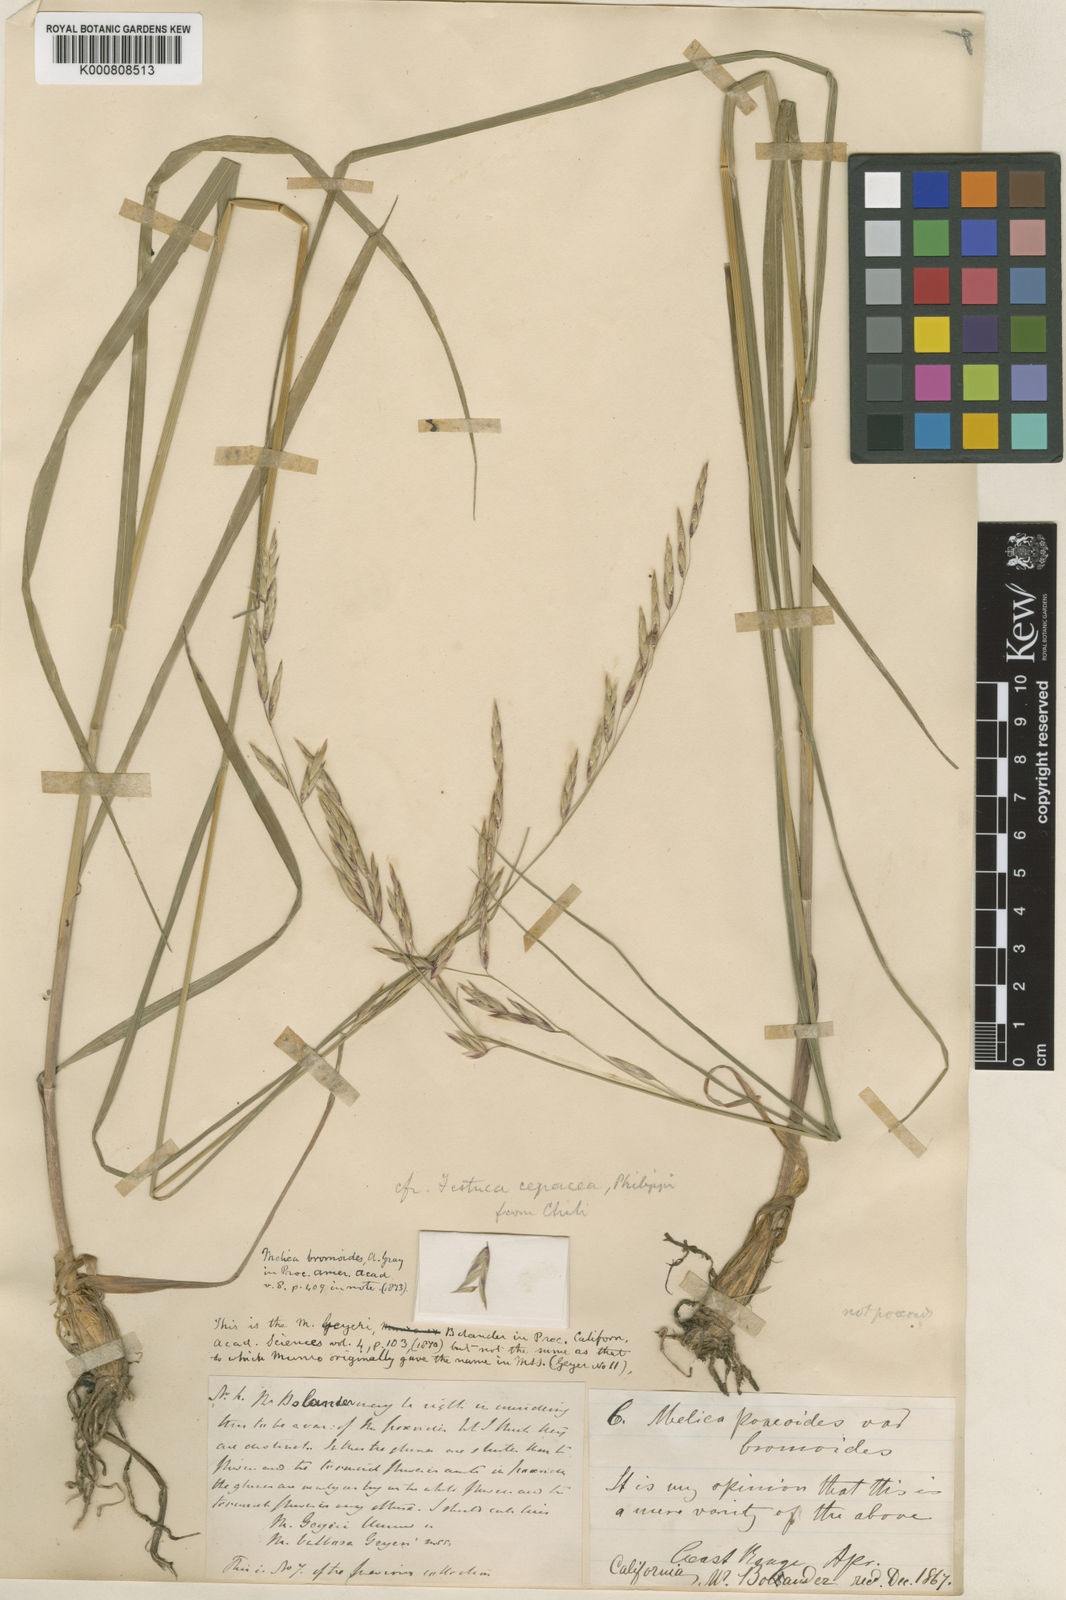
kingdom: Plantae
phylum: Tracheophyta
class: Liliopsida
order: Poales
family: Poaceae
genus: Melica
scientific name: Melica
